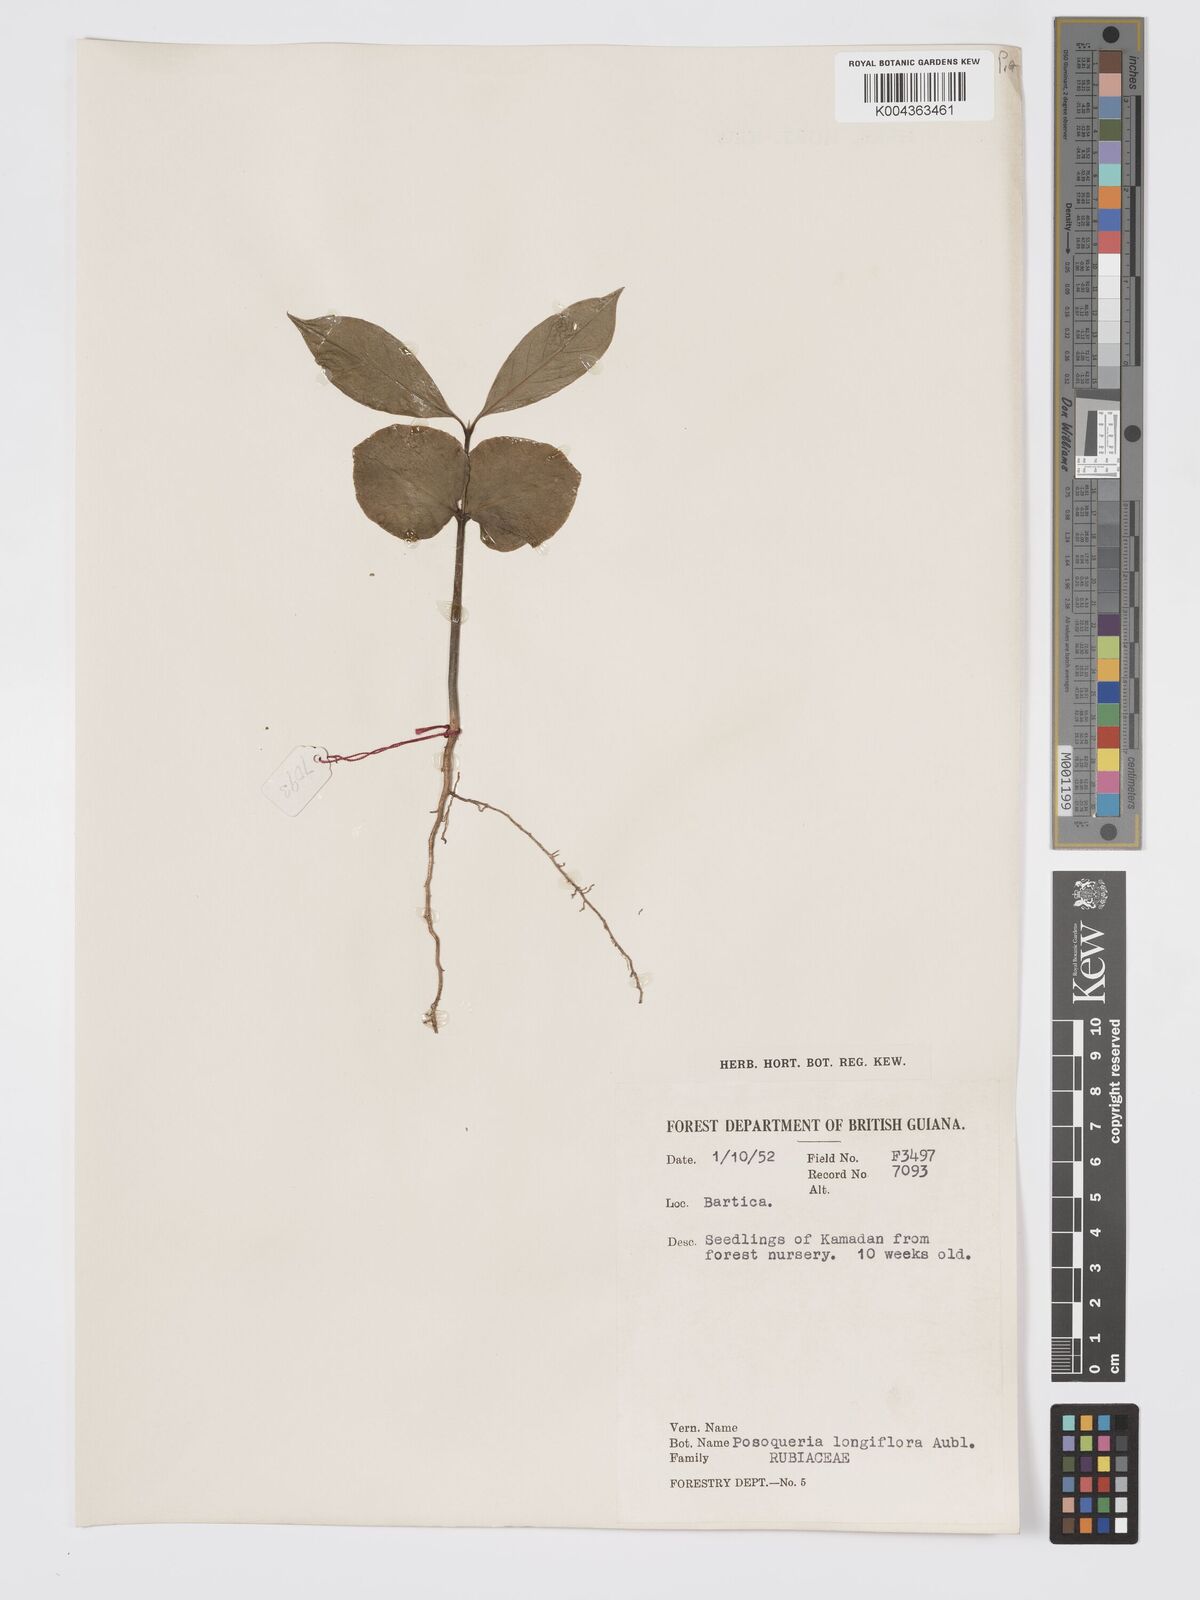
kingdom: Plantae
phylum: Tracheophyta
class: Magnoliopsida
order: Gentianales
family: Rubiaceae
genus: Posoqueria
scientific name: Posoqueria
